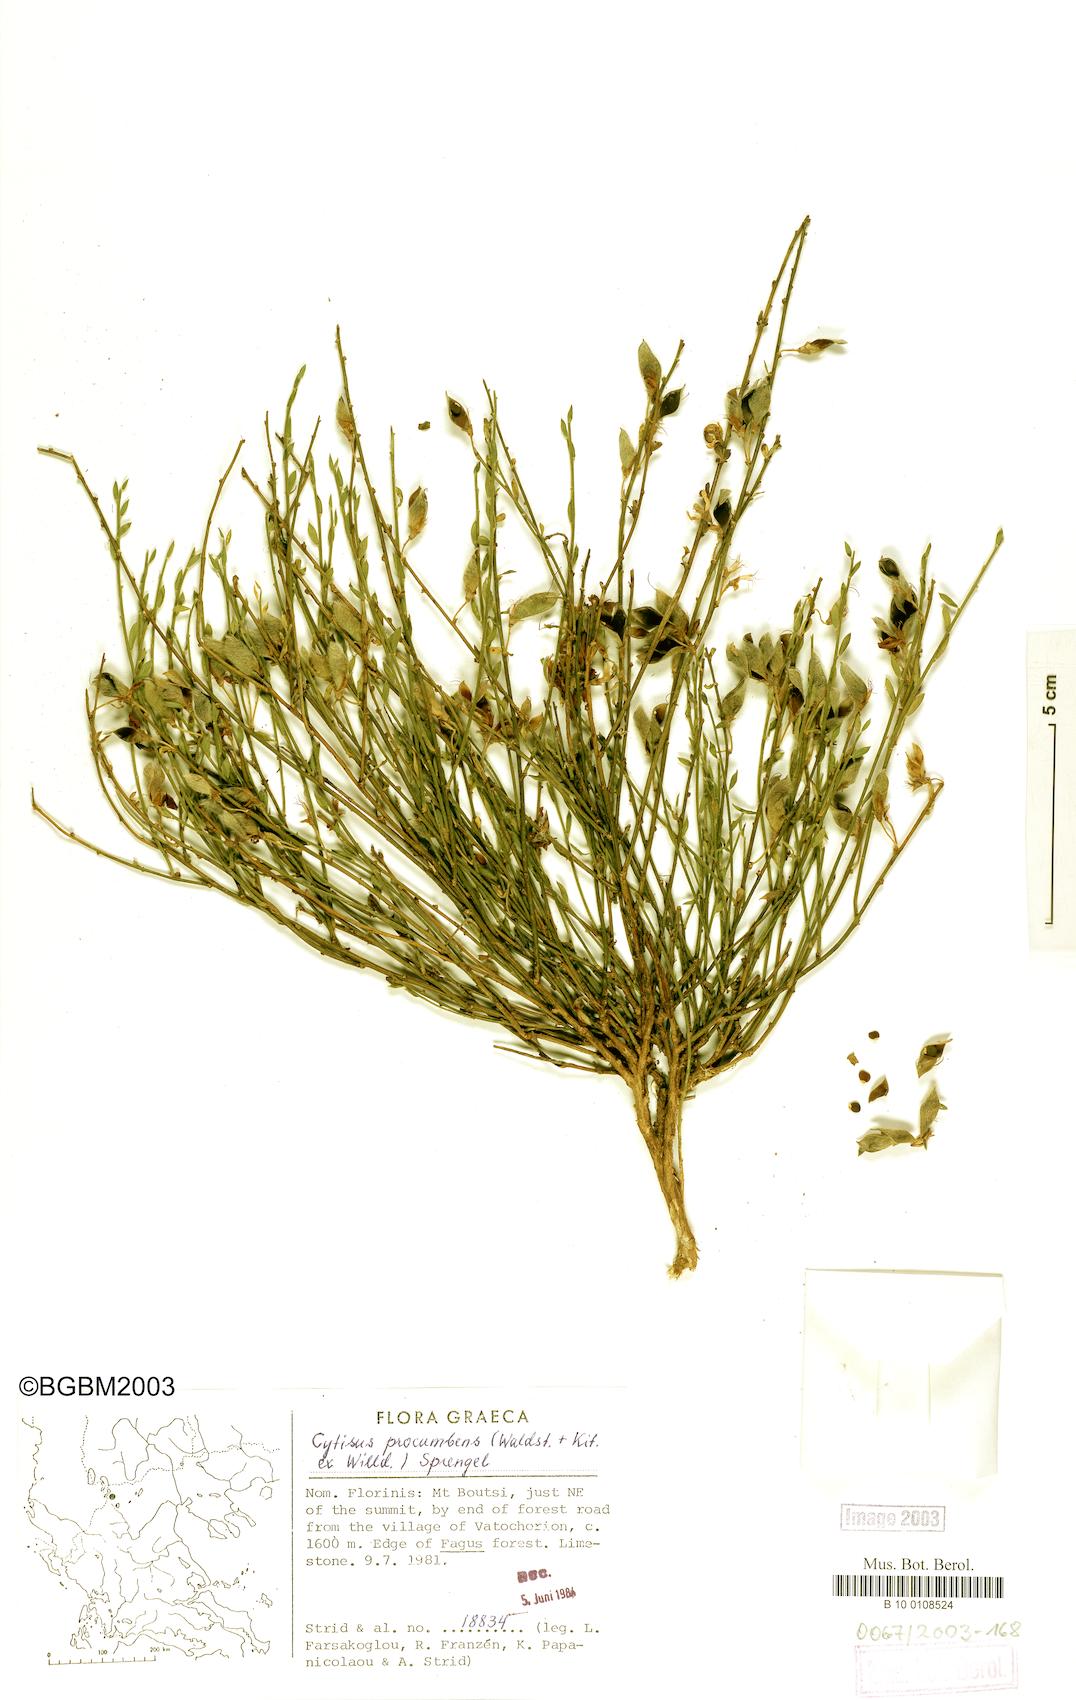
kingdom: Plantae
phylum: Tracheophyta
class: Magnoliopsida
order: Fabales
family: Fabaceae
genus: Cytisus
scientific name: Cytisus procumbens
